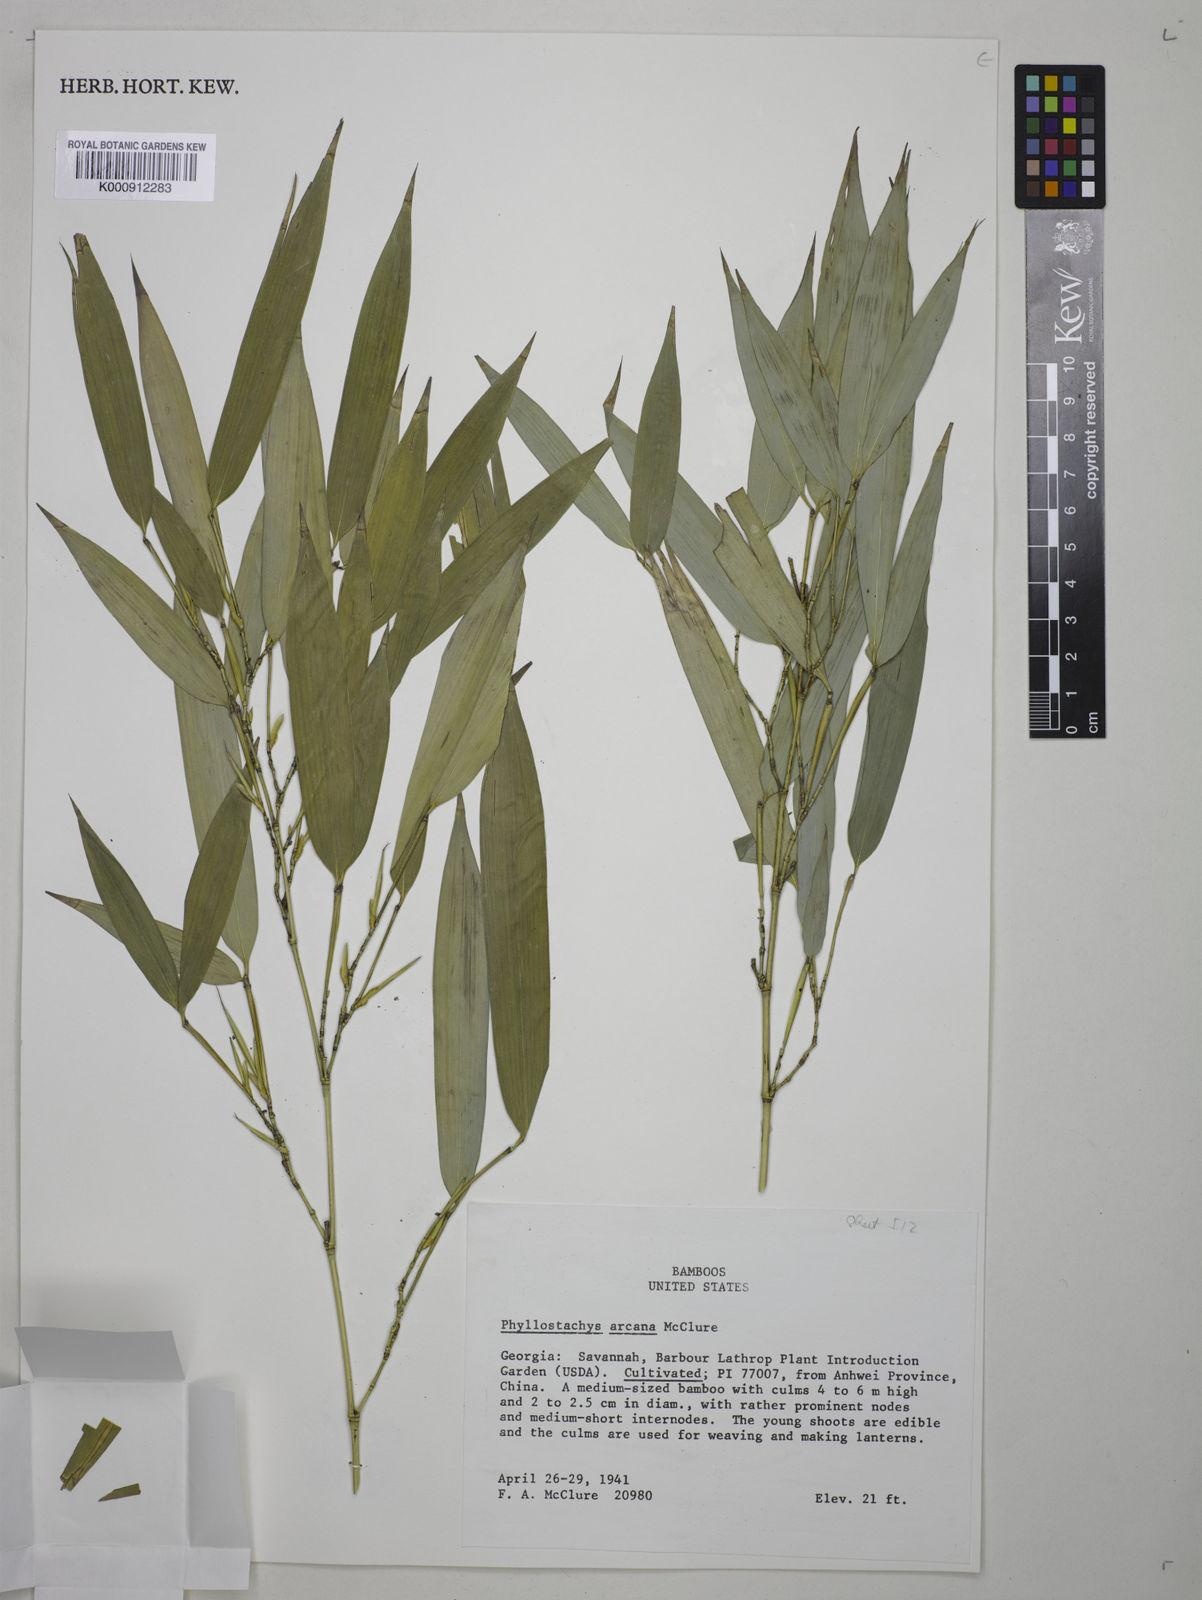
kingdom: Plantae
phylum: Tracheophyta
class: Liliopsida
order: Poales
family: Poaceae
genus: Phyllostachys
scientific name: Phyllostachys arcana
